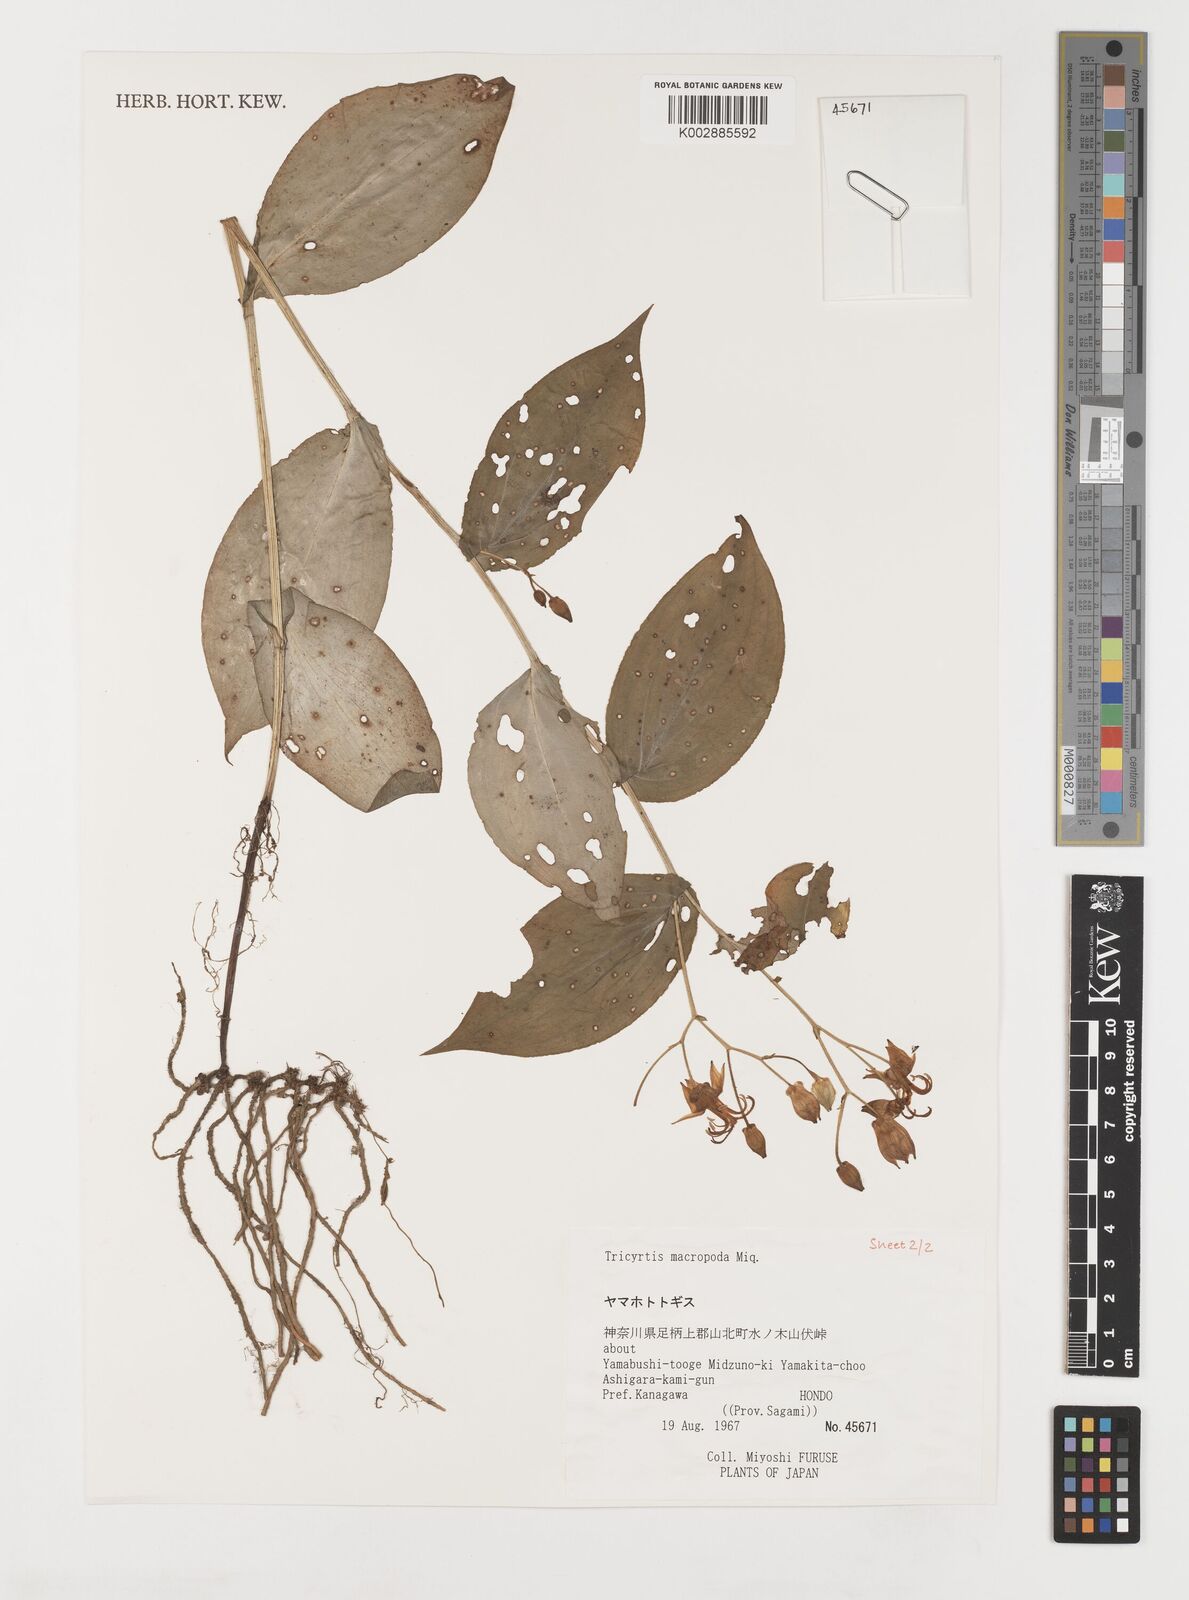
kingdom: Plantae
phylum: Tracheophyta
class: Liliopsida
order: Liliales
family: Liliaceae
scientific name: Liliaceae
